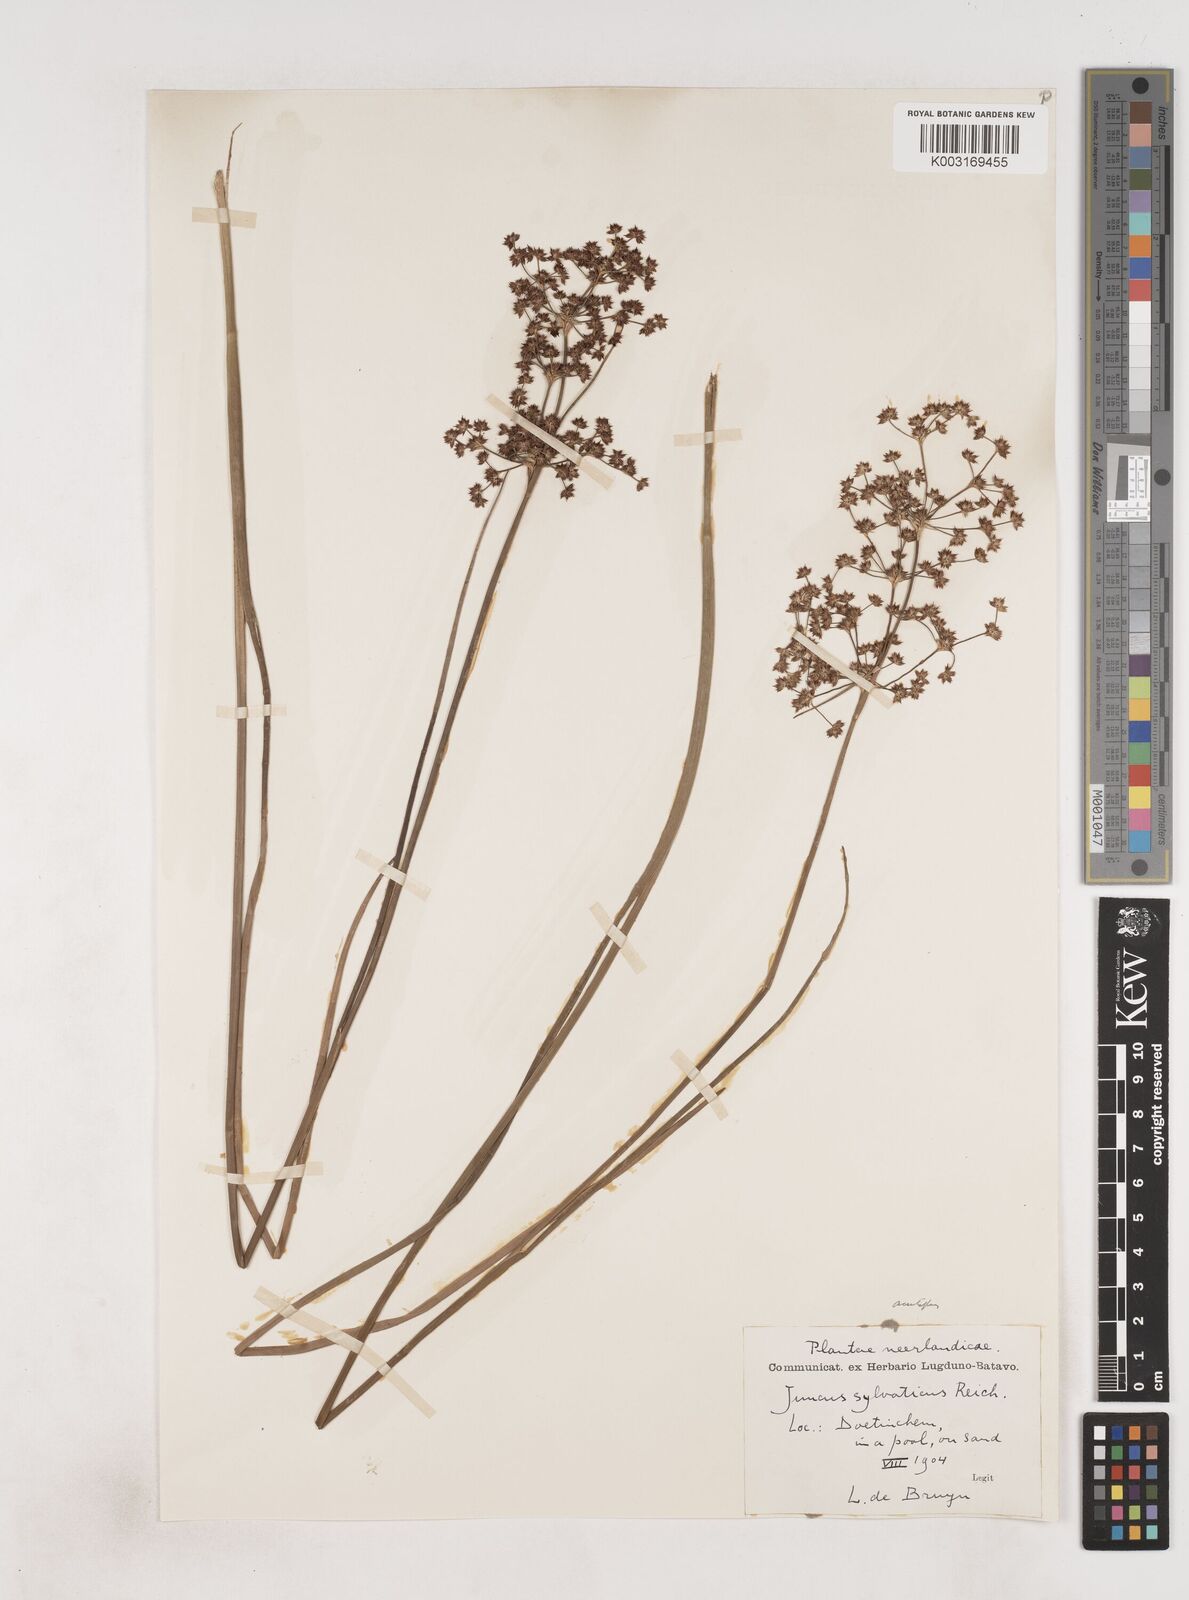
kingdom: Plantae
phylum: Tracheophyta
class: Liliopsida
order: Poales
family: Juncaceae
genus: Juncus
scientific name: Juncus acutiflorus
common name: Sharp-flowered rush
